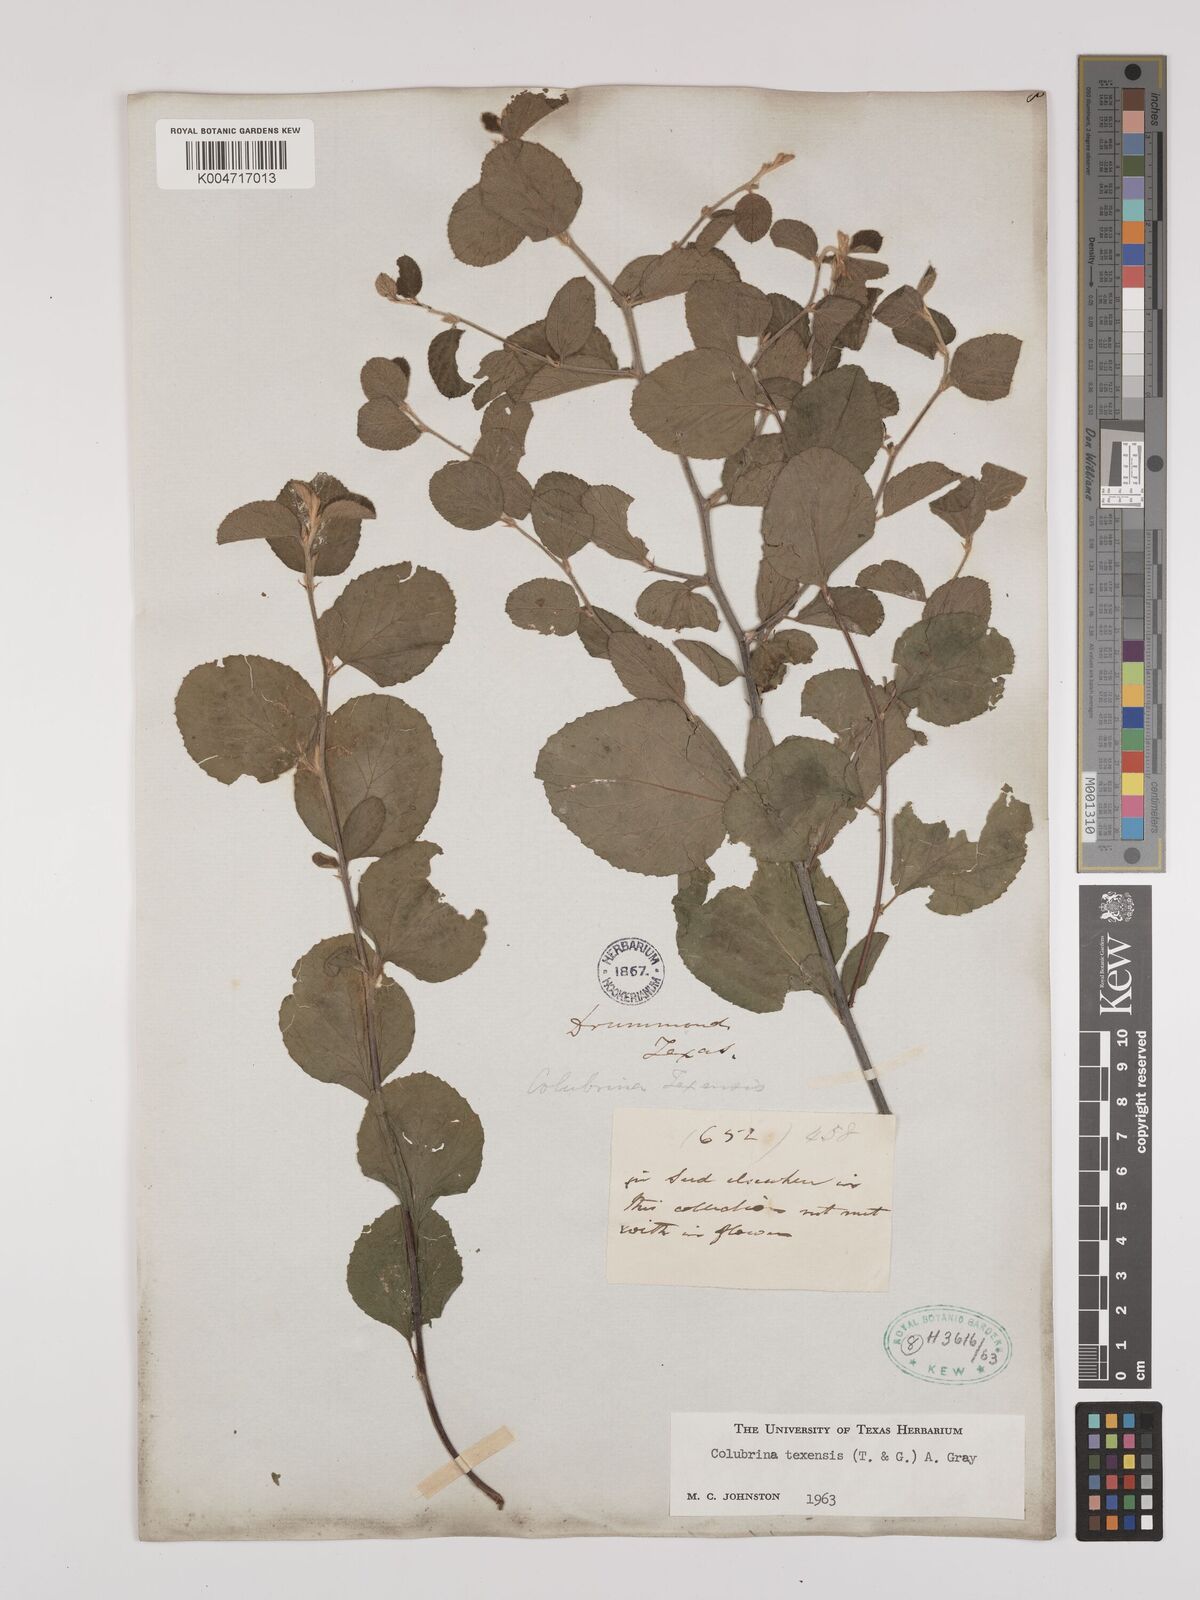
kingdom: Plantae
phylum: Tracheophyta
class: Magnoliopsida
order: Rosales
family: Rhamnaceae
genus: Colubrina
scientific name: Colubrina texensis
